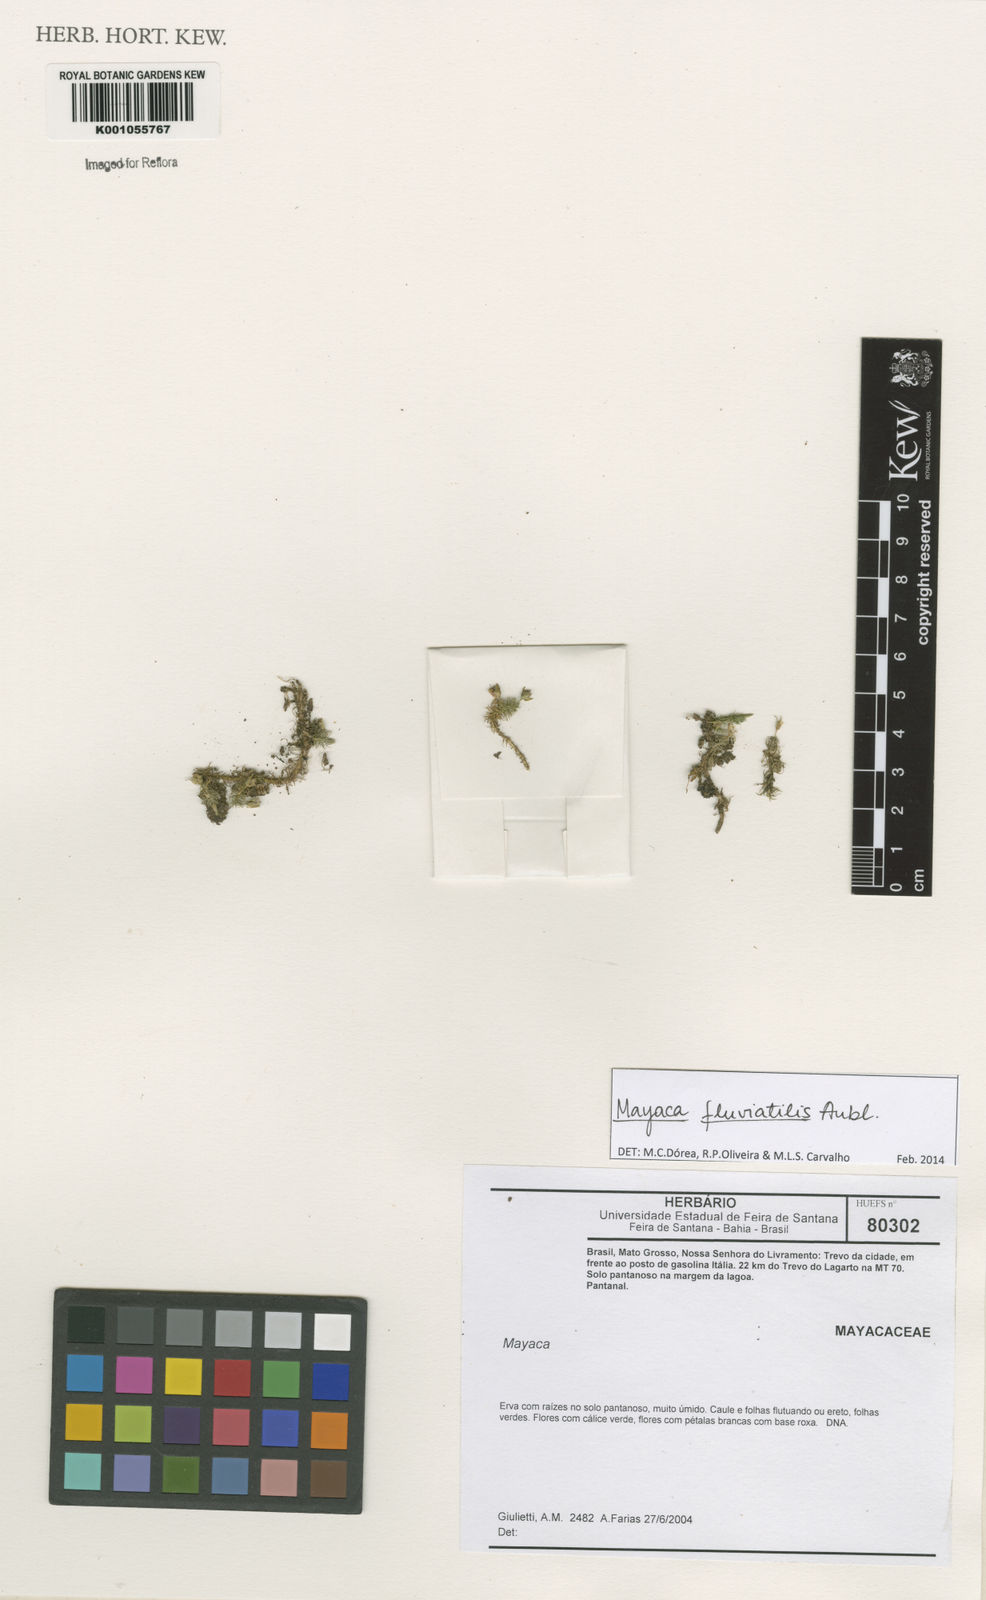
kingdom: Plantae
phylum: Tracheophyta
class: Liliopsida
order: Poales
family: Mayacaceae
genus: Mayaca
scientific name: Mayaca
